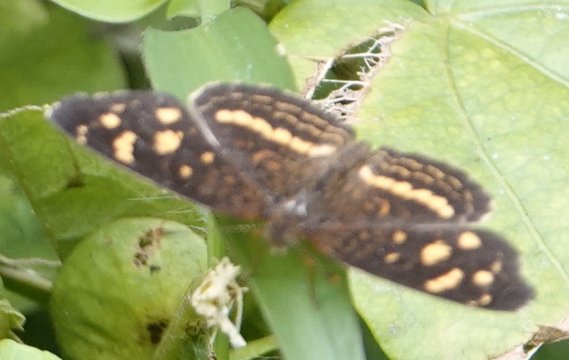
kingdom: Animalia
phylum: Arthropoda
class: Insecta
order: Lepidoptera
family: Nymphalidae
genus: Anthanassa
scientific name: Anthanassa drusilla
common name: Orange-patched Crescent
